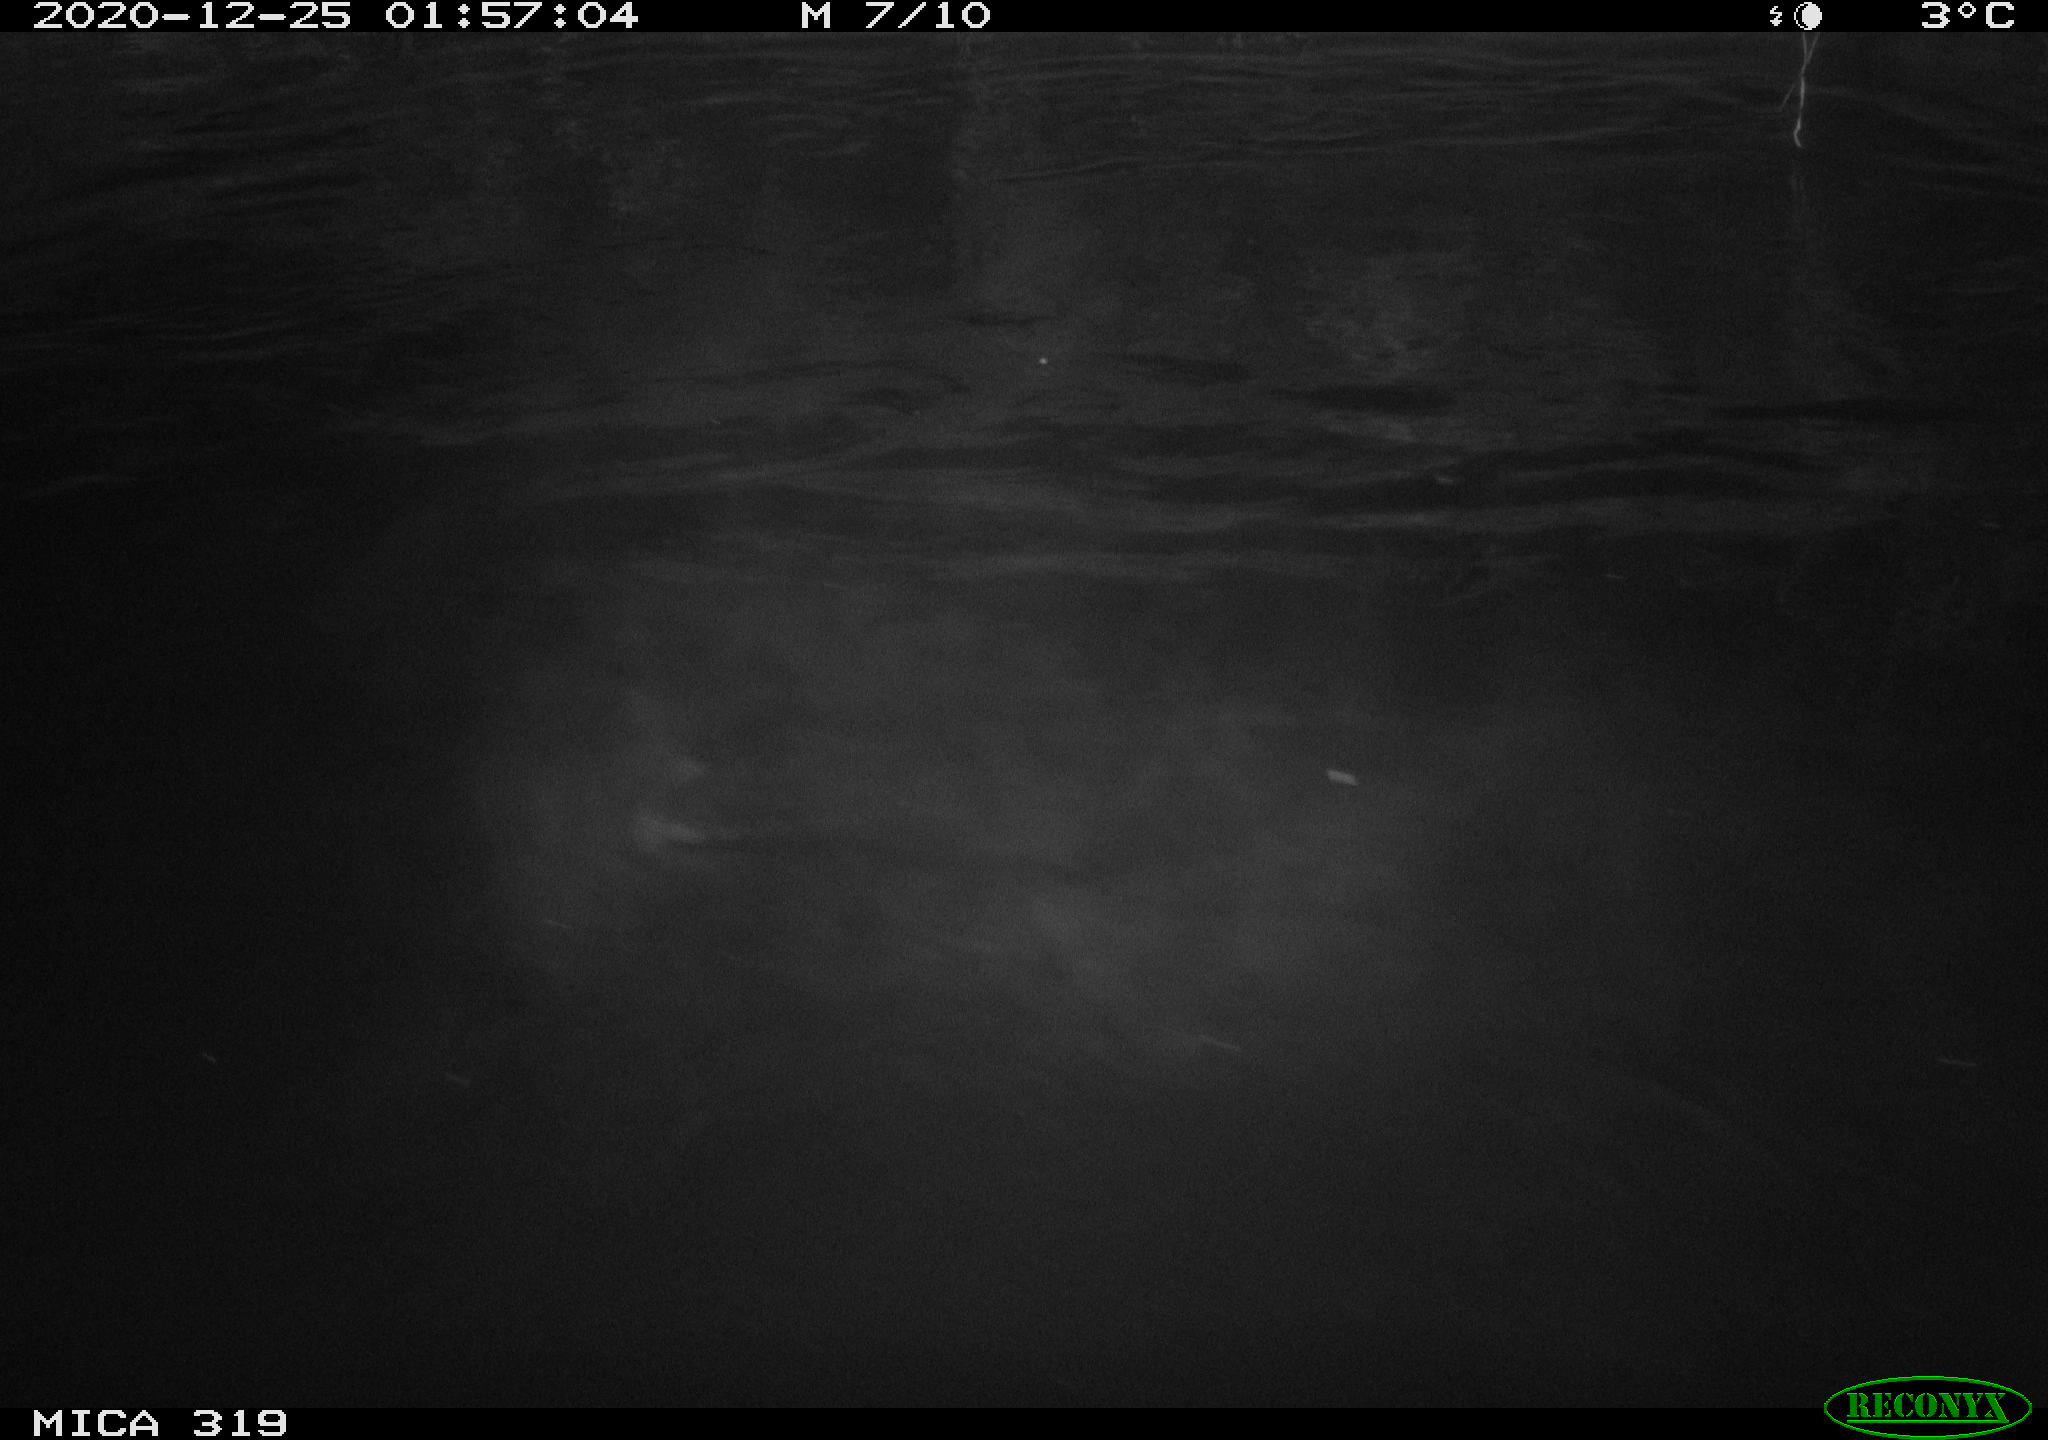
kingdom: Animalia
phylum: Chordata
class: Aves
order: Anseriformes
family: Anatidae
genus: Anas
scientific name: Anas platyrhynchos
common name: Mallard
